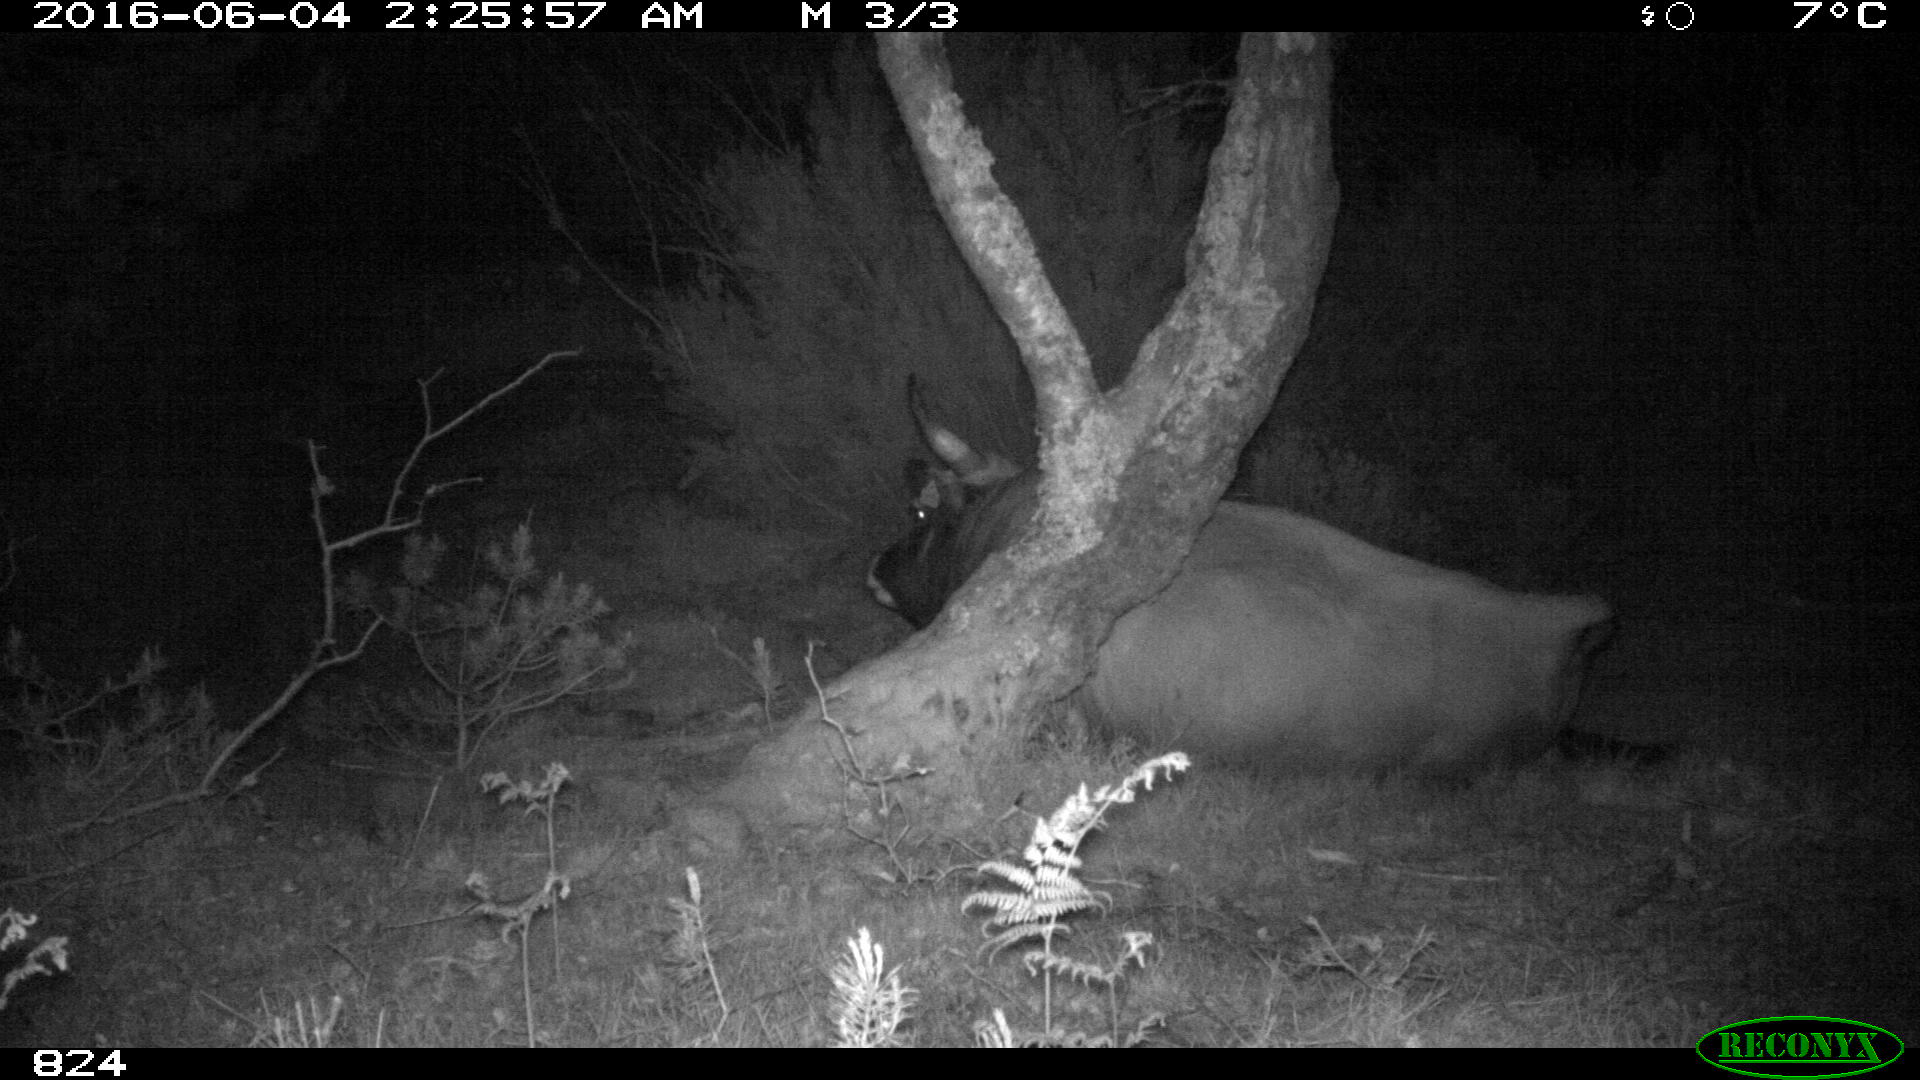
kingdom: Animalia
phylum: Chordata
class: Mammalia
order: Artiodactyla
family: Bovidae
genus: Bos
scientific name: Bos taurus
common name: Domesticated cattle
